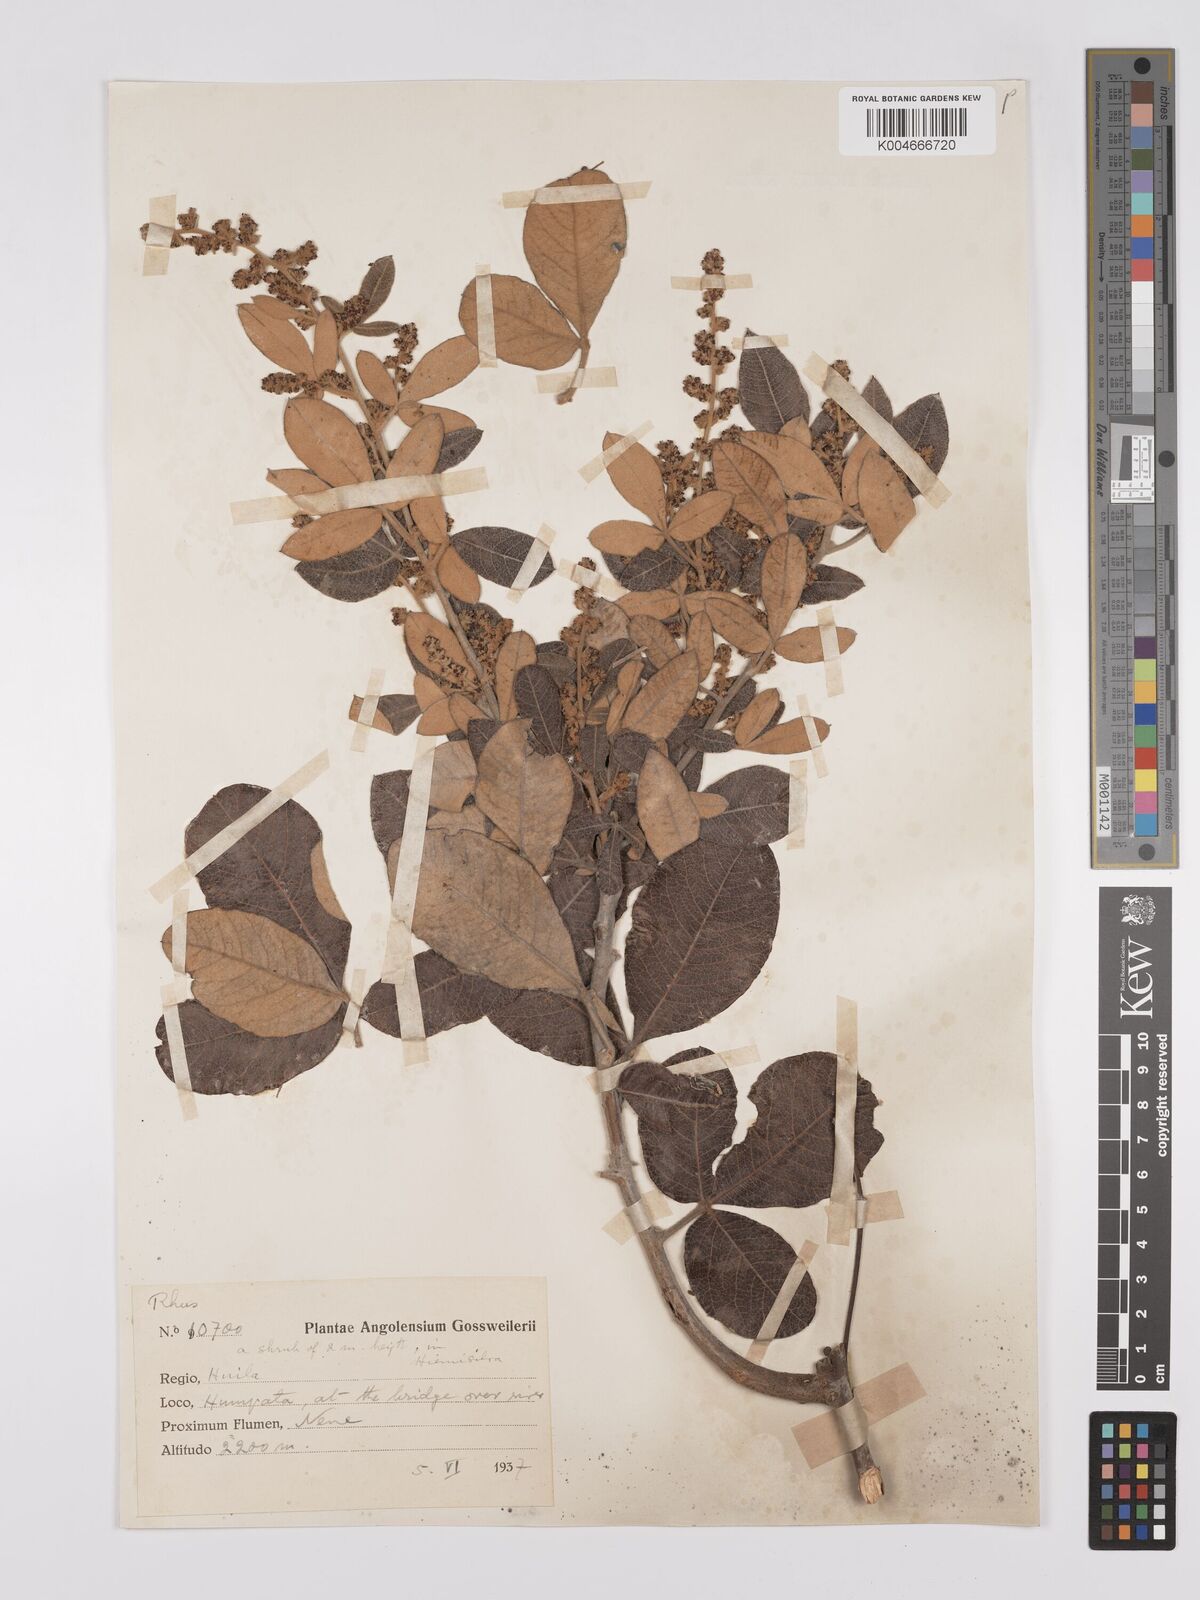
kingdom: Plantae
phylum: Tracheophyta
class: Magnoliopsida
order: Sapindales
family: Anacardiaceae
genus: Searsia
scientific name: Searsia kirkii
